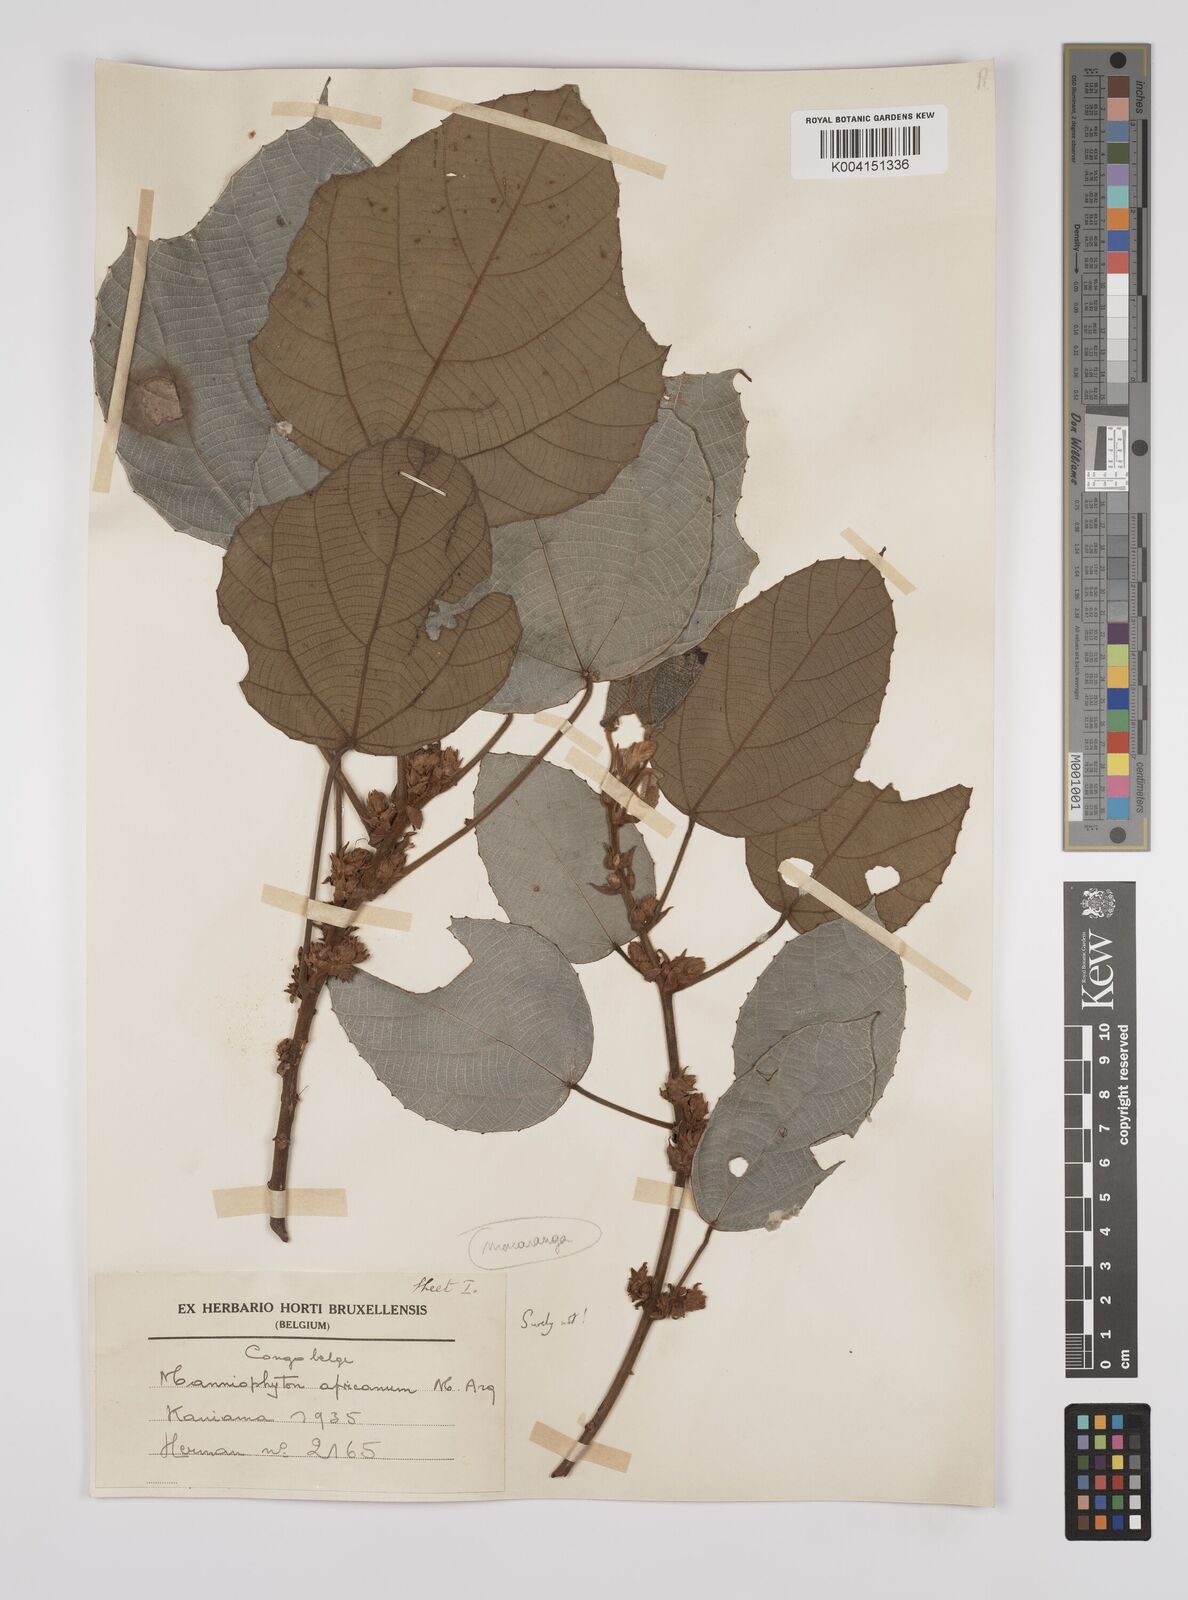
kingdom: Plantae
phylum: Tracheophyta
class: Magnoliopsida
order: Malpighiales
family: Euphorbiaceae
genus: Macaranga
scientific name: Macaranga angolensis
